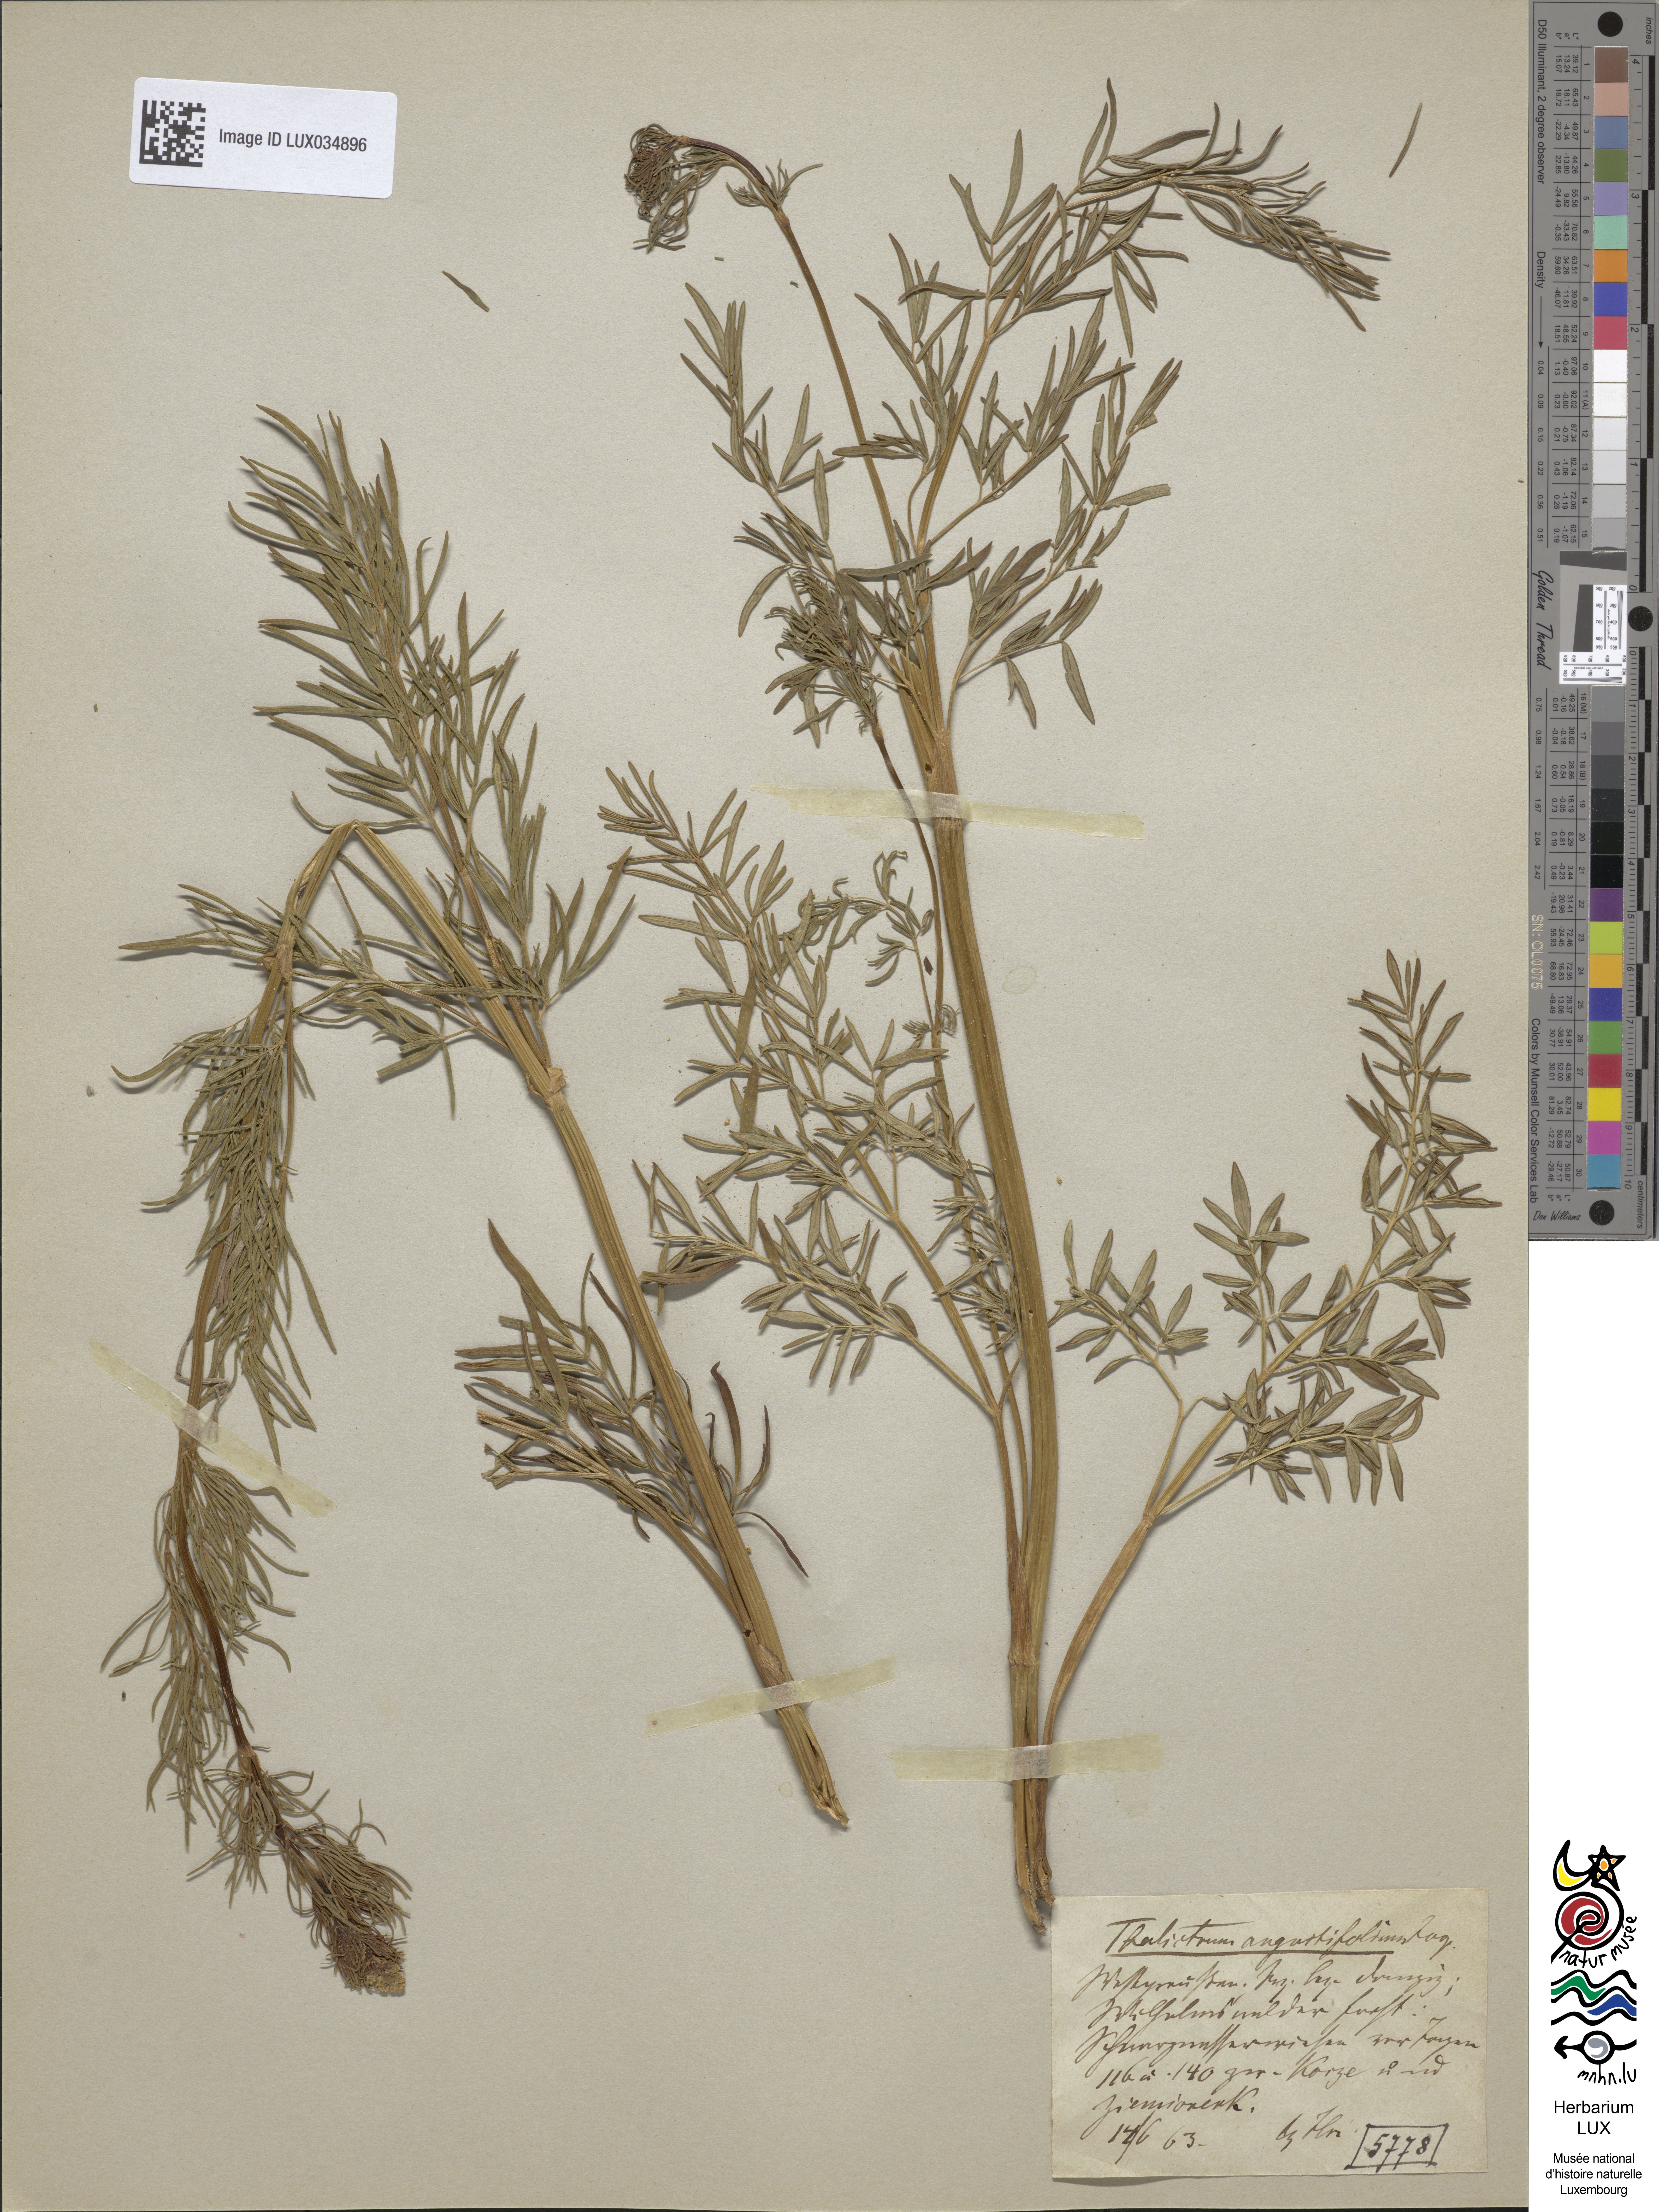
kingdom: Plantae
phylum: Tracheophyta
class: Magnoliopsida
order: Ranunculales
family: Ranunculaceae
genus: Thalictrum
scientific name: Thalictrum lucidum
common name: Shining meadow-rue
